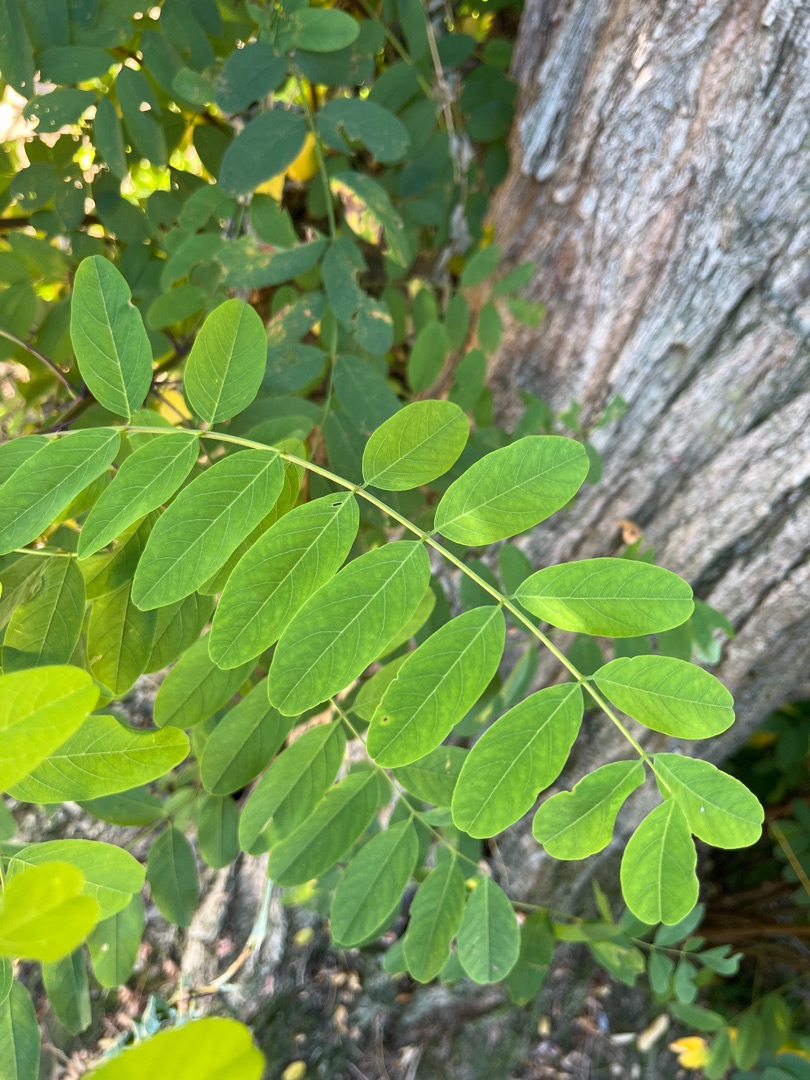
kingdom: Plantae
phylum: Tracheophyta
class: Magnoliopsida
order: Fabales
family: Fabaceae
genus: Robinia
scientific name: Robinia pseudoacacia
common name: Robinie
